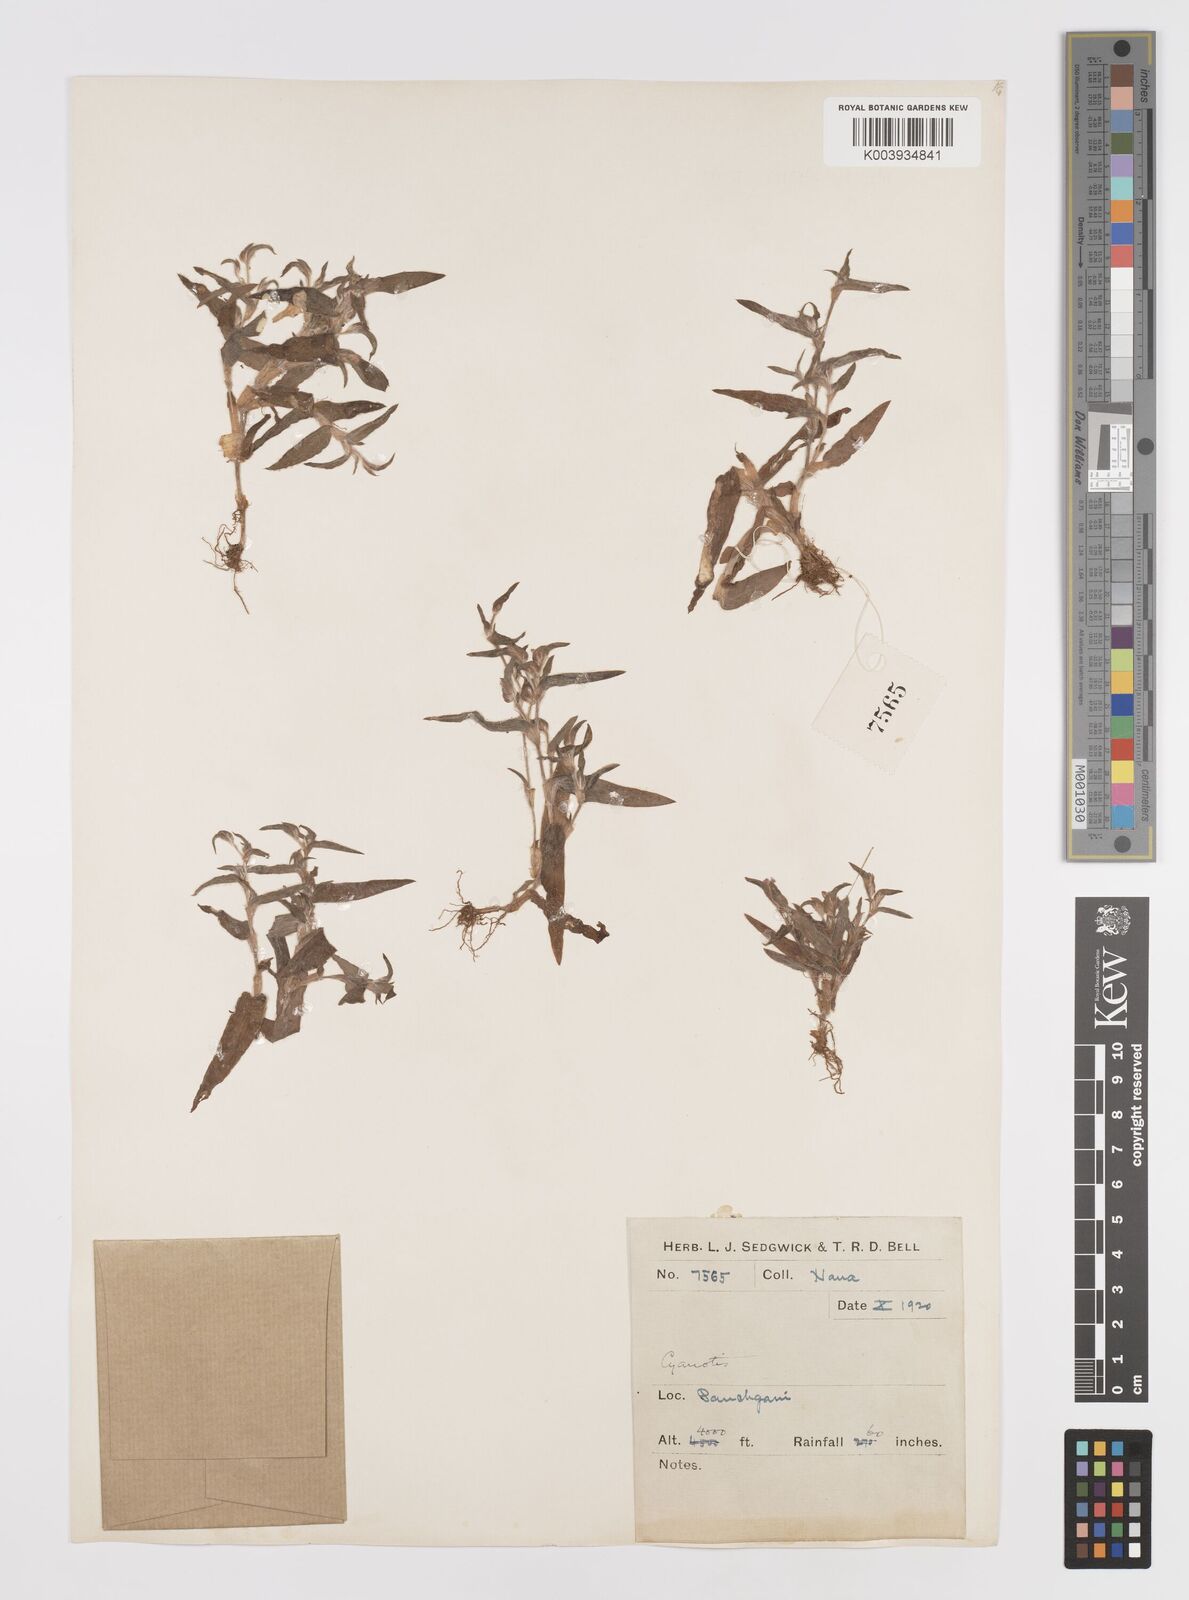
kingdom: Plantae
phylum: Tracheophyta
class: Liliopsida
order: Commelinales
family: Commelinaceae
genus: Cyanotis
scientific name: Cyanotis
